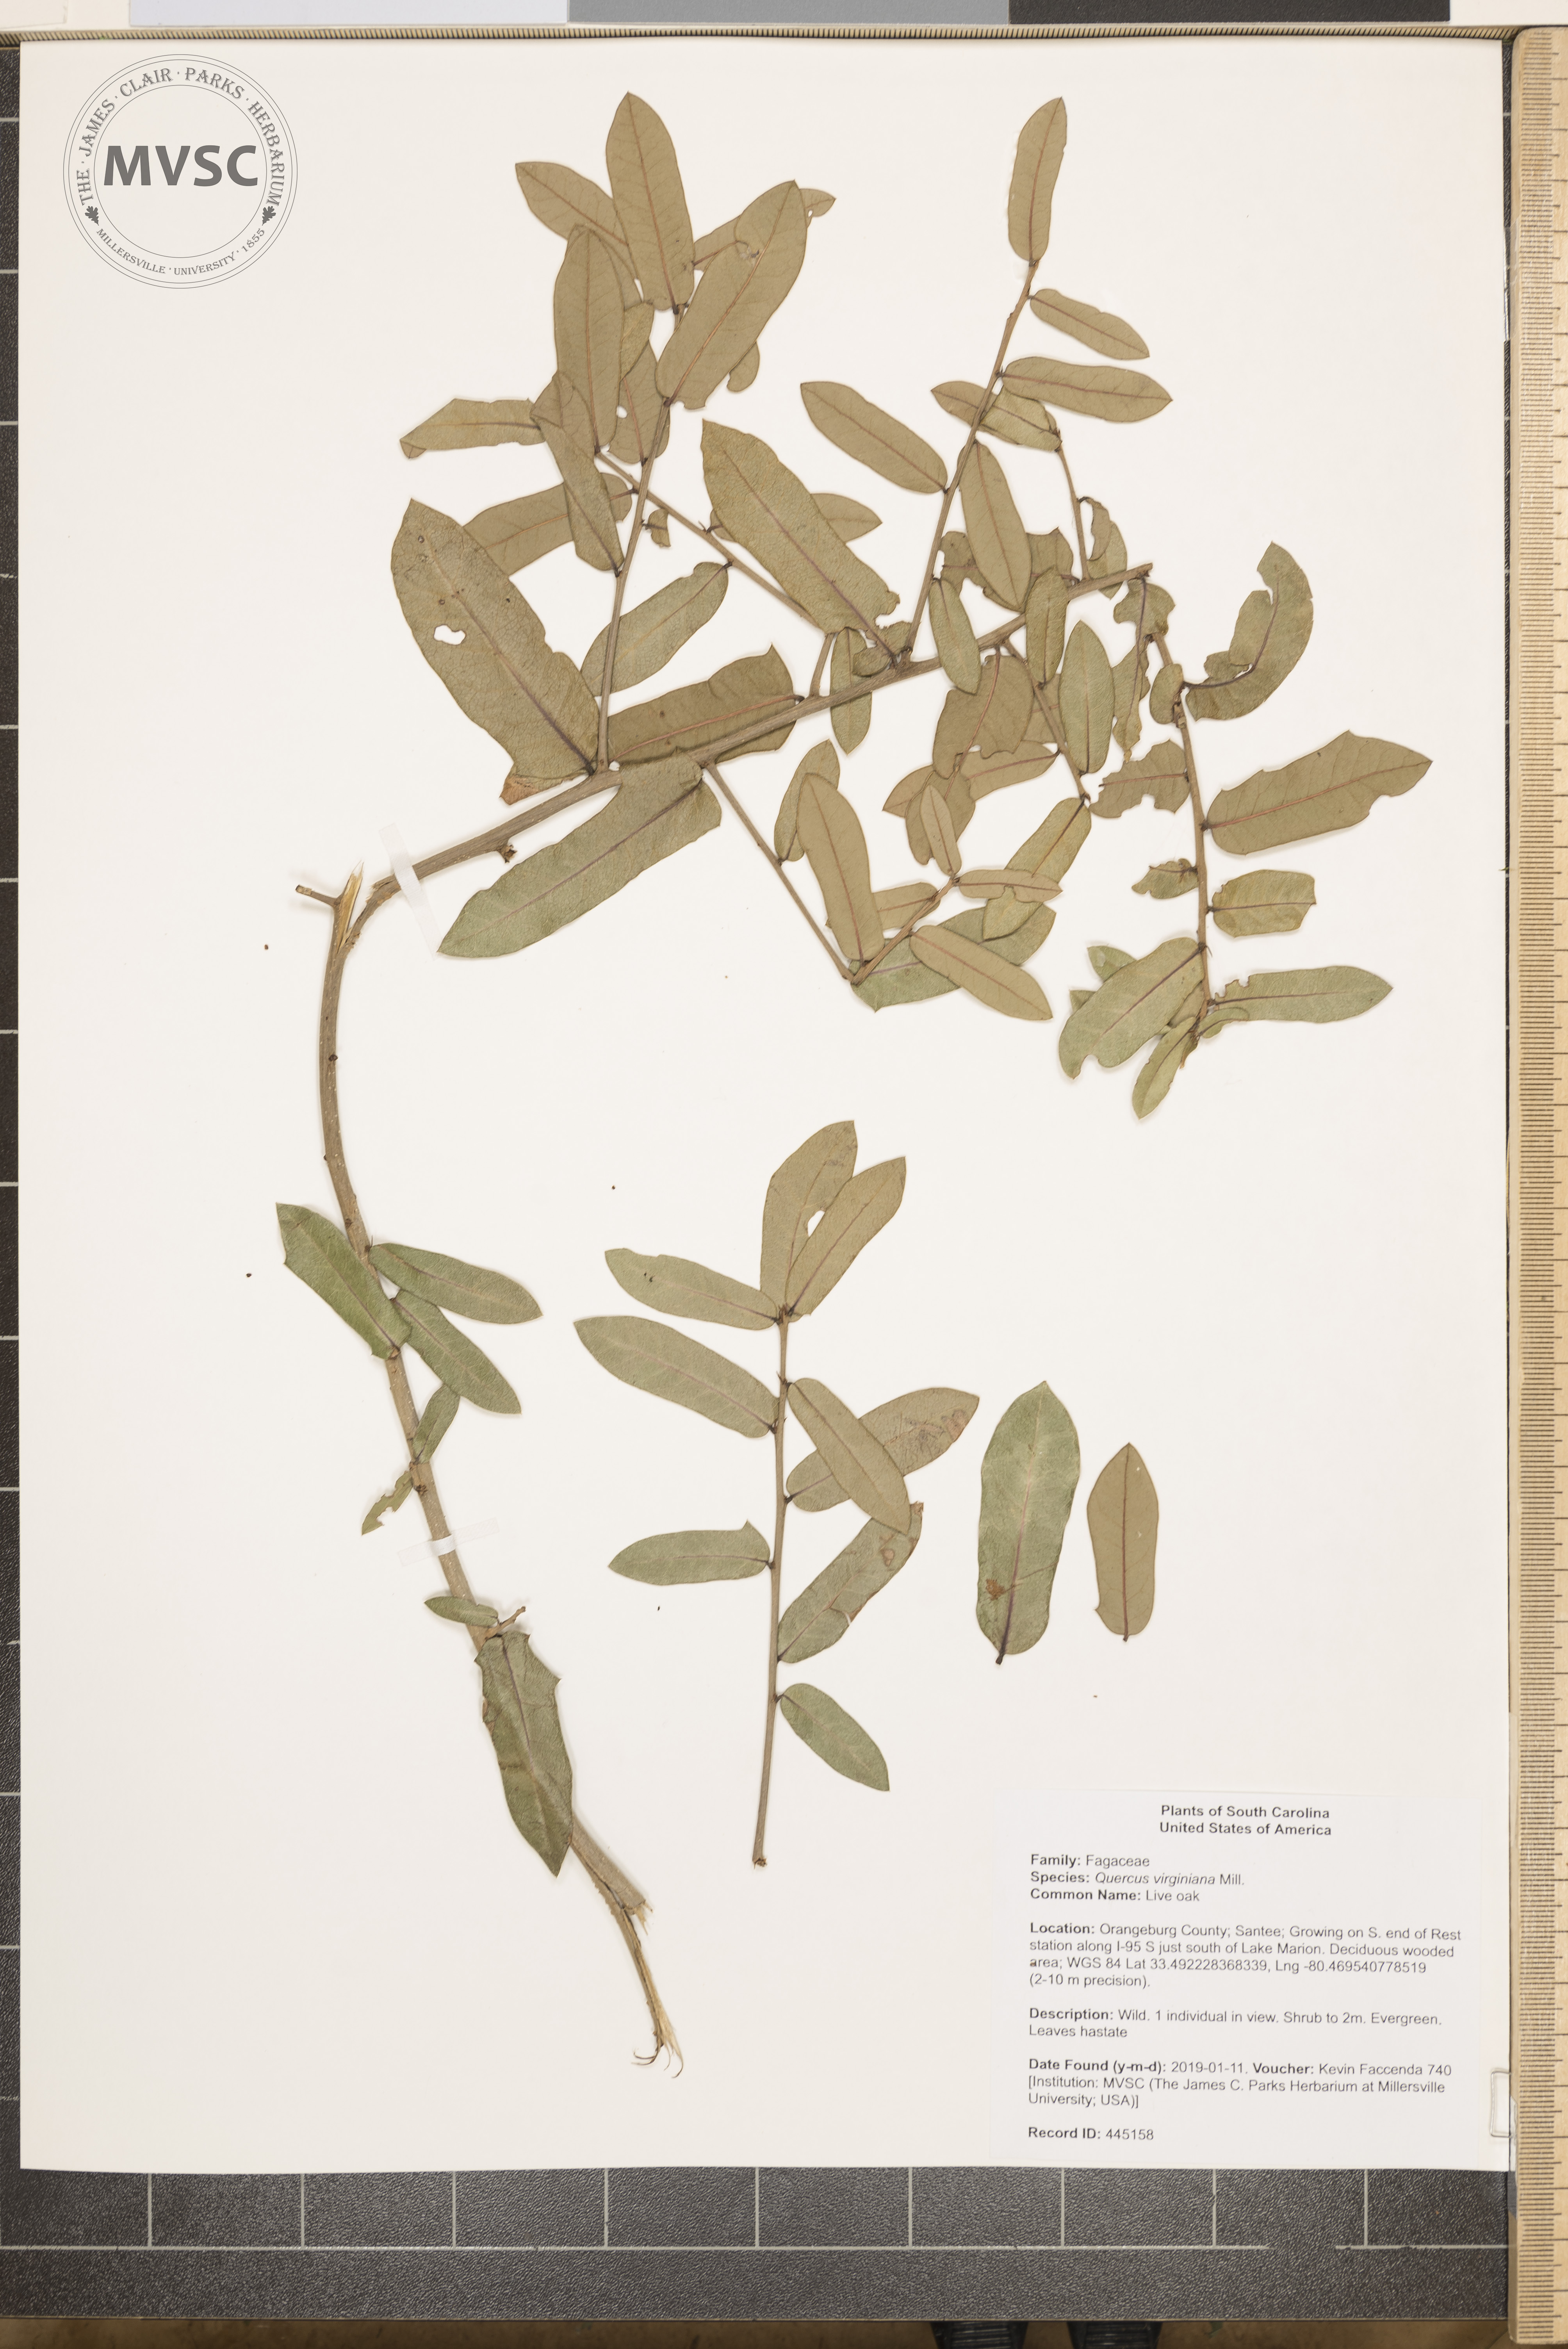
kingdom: Plantae
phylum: Tracheophyta
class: Magnoliopsida
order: Fagales
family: Fagaceae
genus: Quercus
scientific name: Quercus virginiana
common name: Live oak
